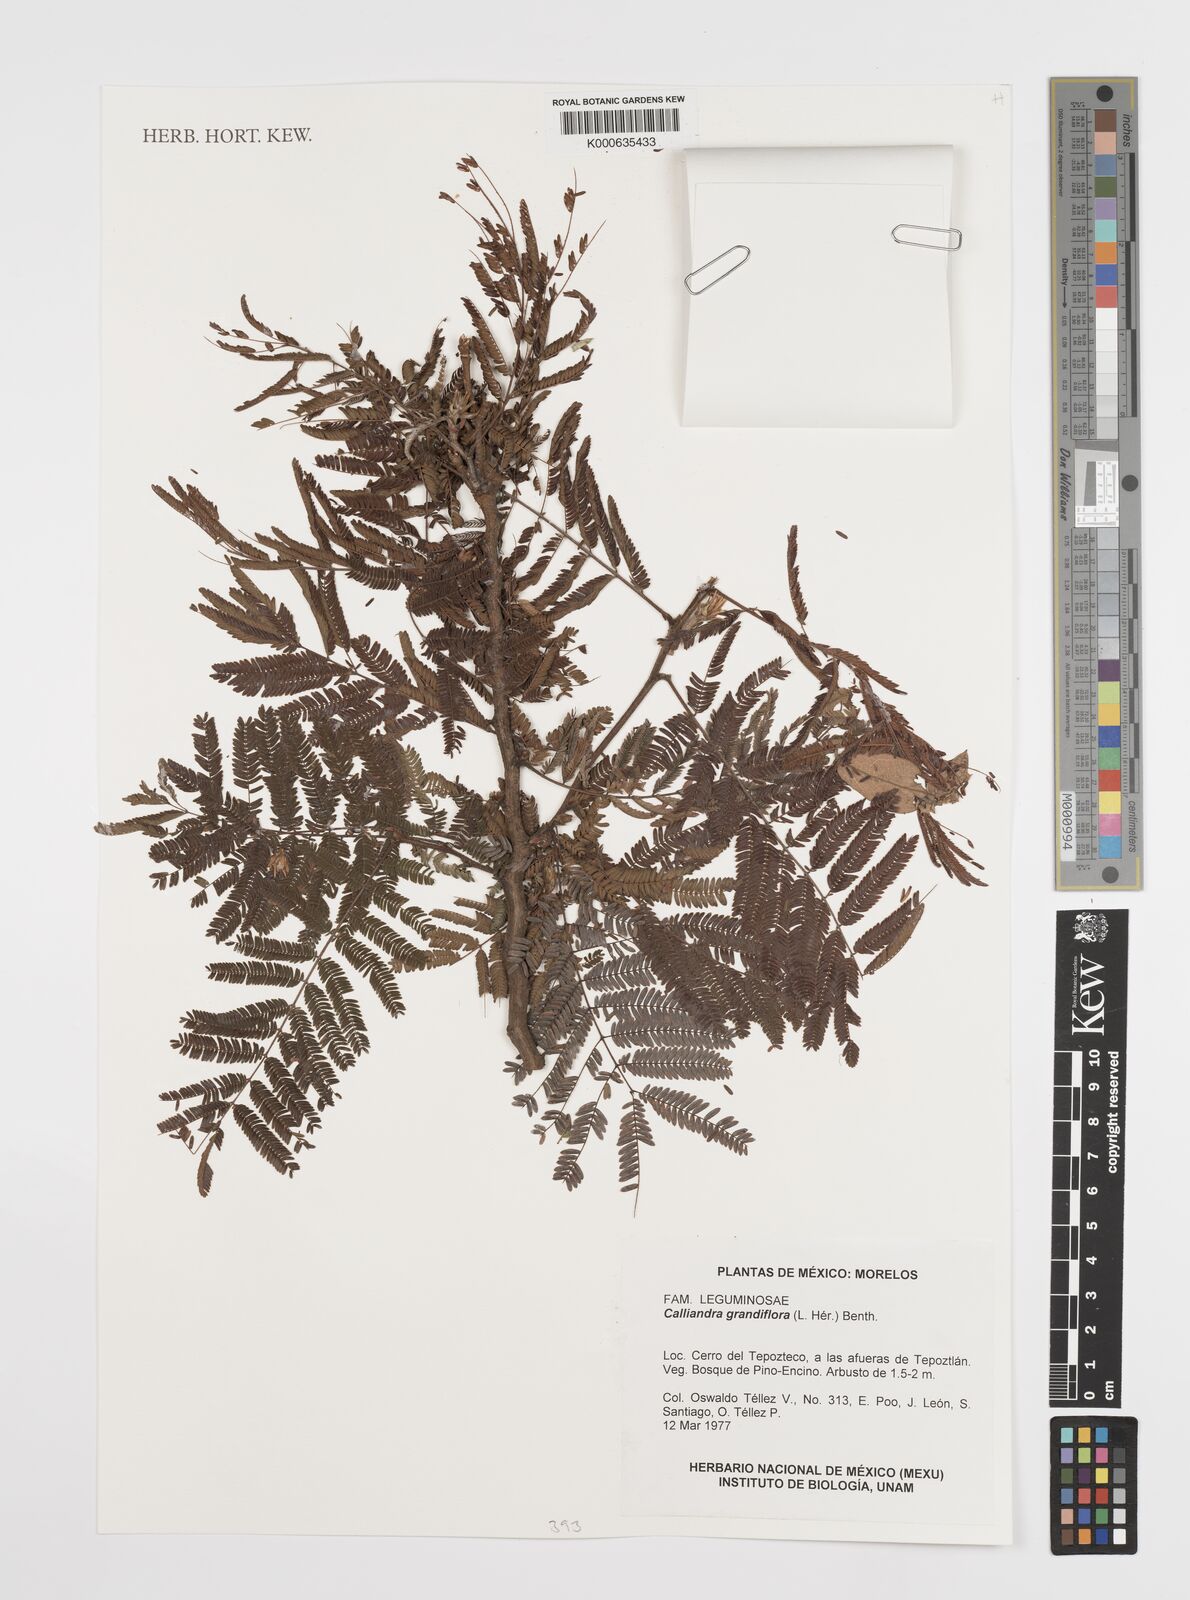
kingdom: Plantae
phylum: Tracheophyta
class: Magnoliopsida
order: Fabales
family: Fabaceae
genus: Calliandra
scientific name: Calliandra
